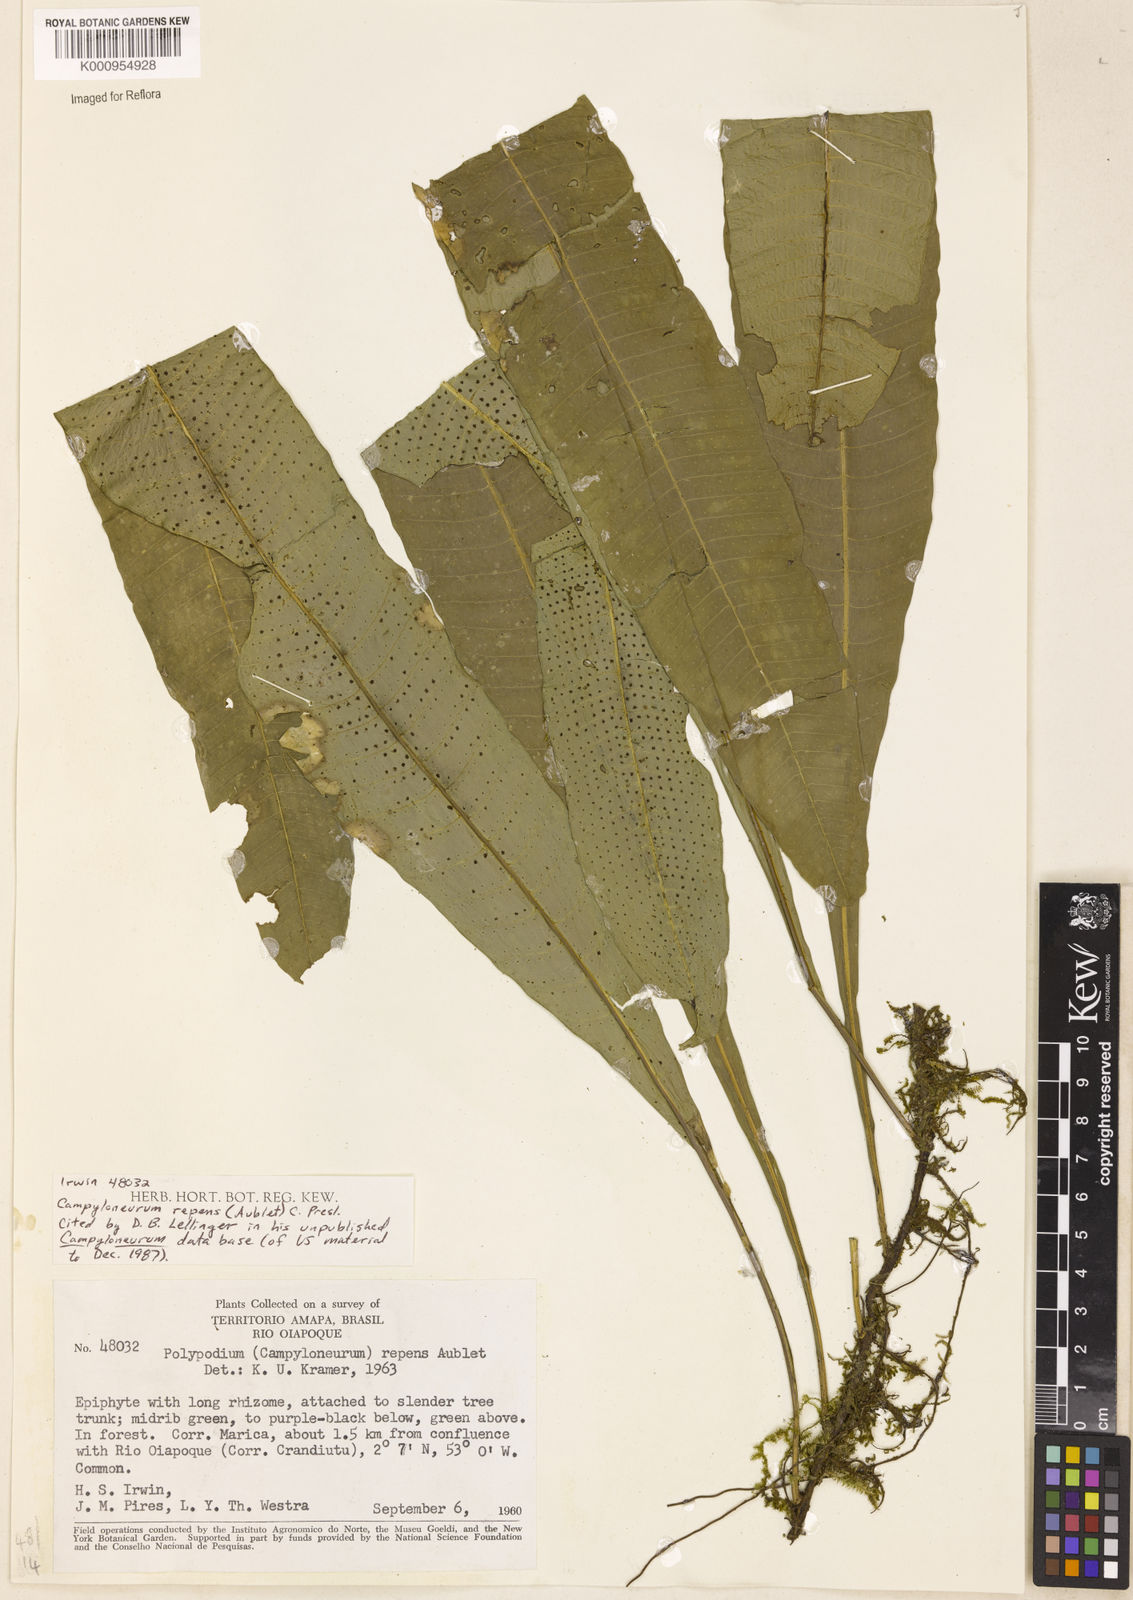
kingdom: Plantae
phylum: Tracheophyta
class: Polypodiopsida
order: Polypodiales
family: Polypodiaceae
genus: Campyloneurum
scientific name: Campyloneurum repens
